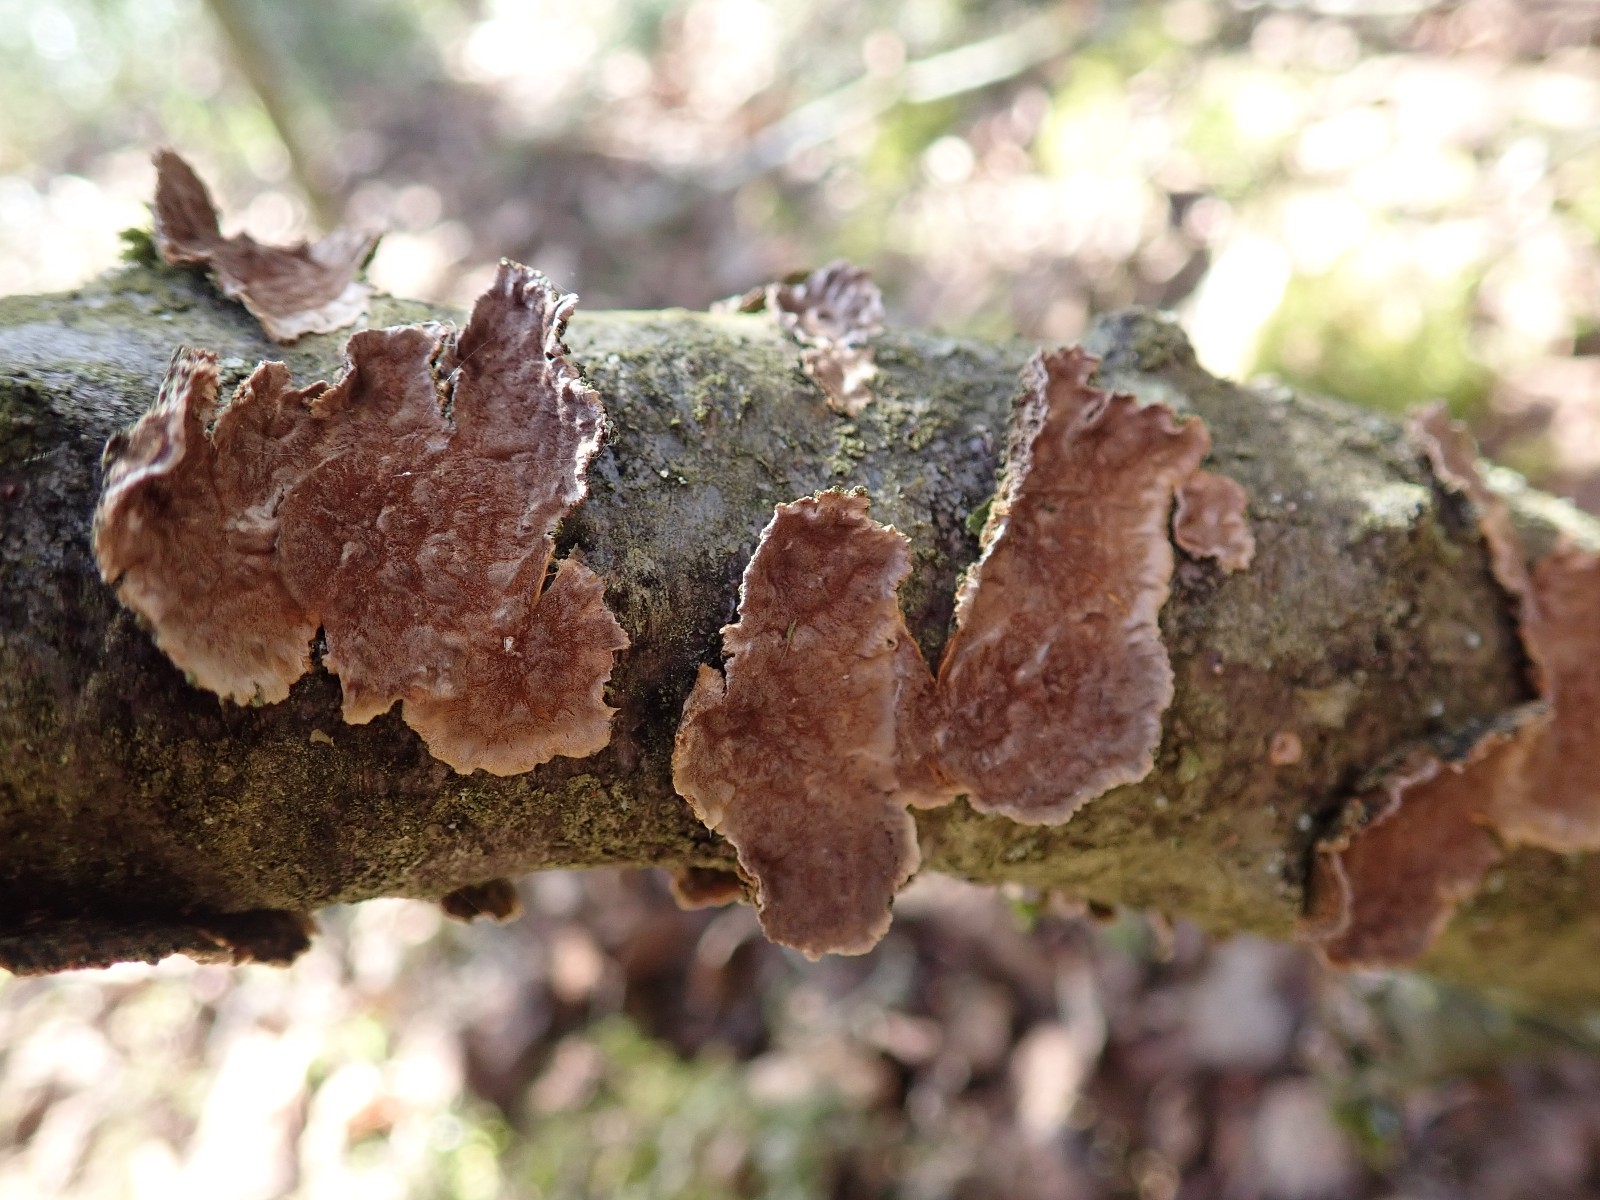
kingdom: Fungi
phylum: Basidiomycota
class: Agaricomycetes
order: Agaricales
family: Cyphellaceae
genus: Chondrostereum
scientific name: Chondrostereum purpureum
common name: purpurlædersvamp
